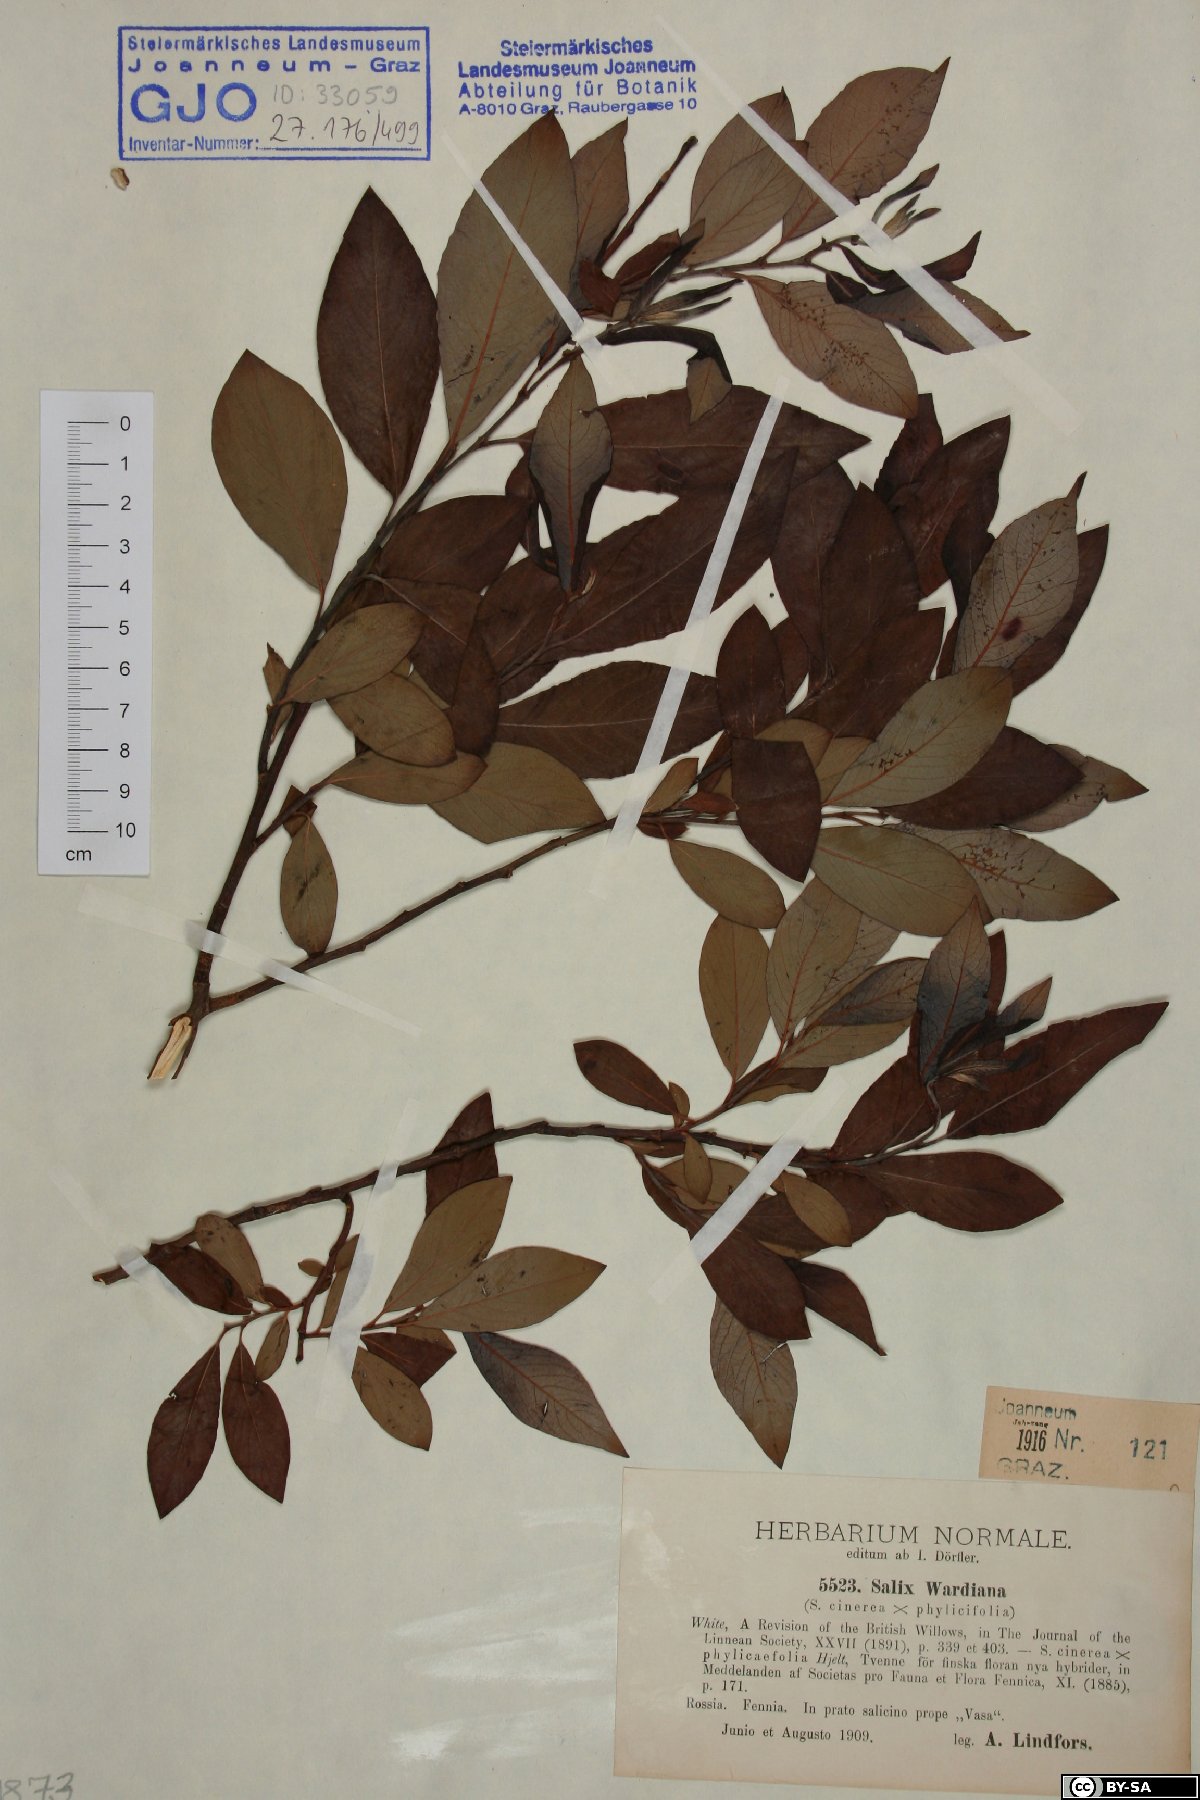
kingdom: Plantae
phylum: Tracheophyta
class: Magnoliopsida
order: Malpighiales
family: Salicaceae
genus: Salix
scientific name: Salix wardiana
